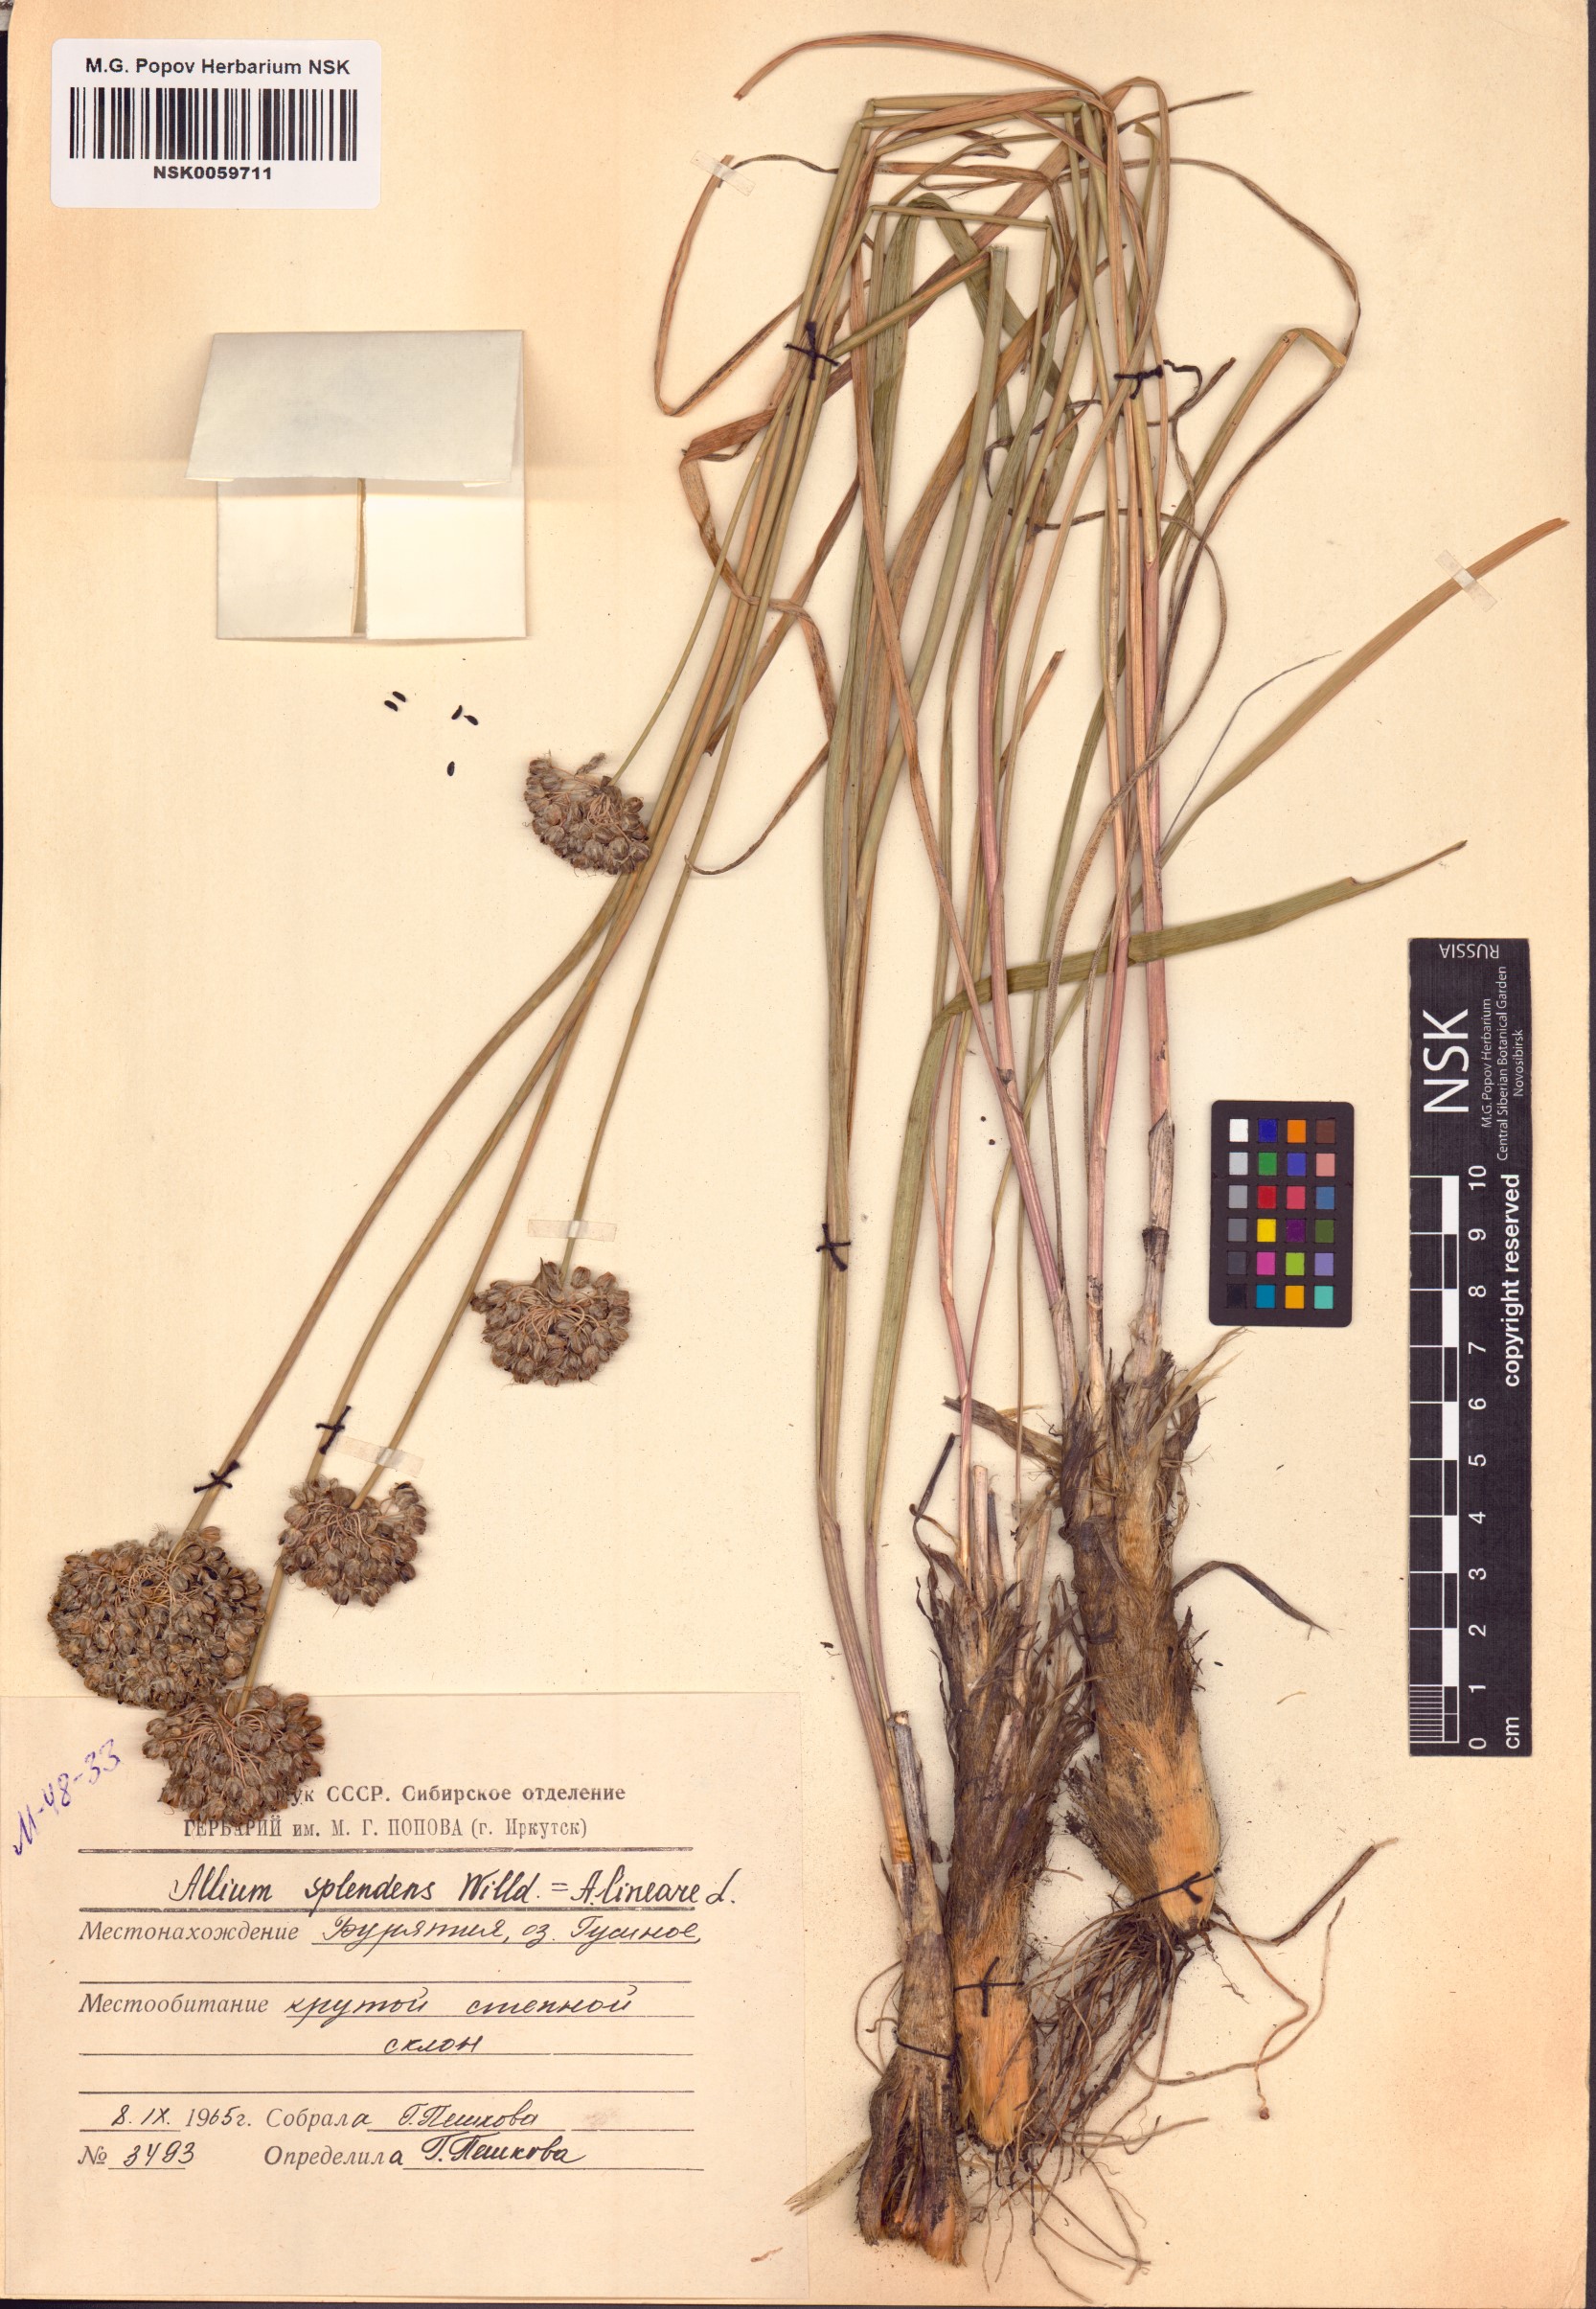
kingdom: Plantae
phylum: Tracheophyta
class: Liliopsida
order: Asparagales
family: Amaryllidaceae
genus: Allium
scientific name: Allium splendens
